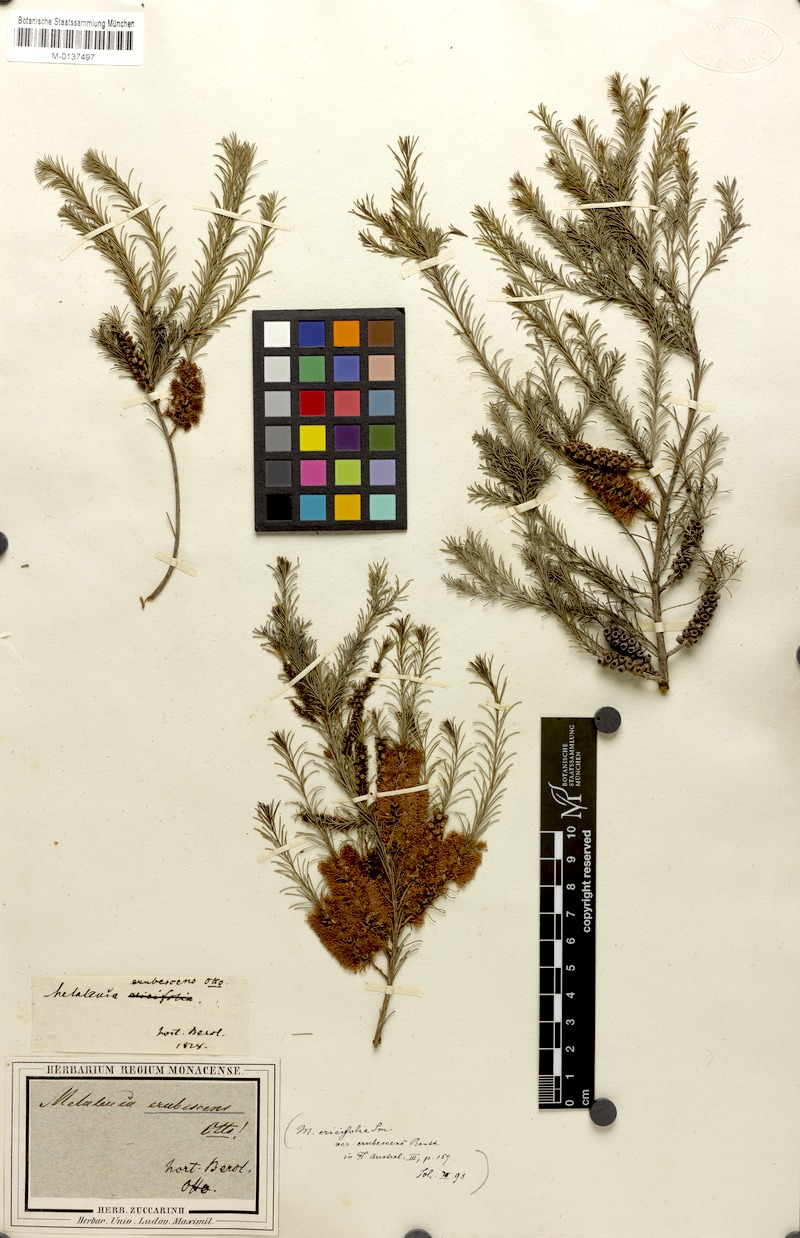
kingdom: Plantae
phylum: Tracheophyta
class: Magnoliopsida
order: Myrtales
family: Myrtaceae
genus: Melaleuca
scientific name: Melaleuca diosmatifolia
